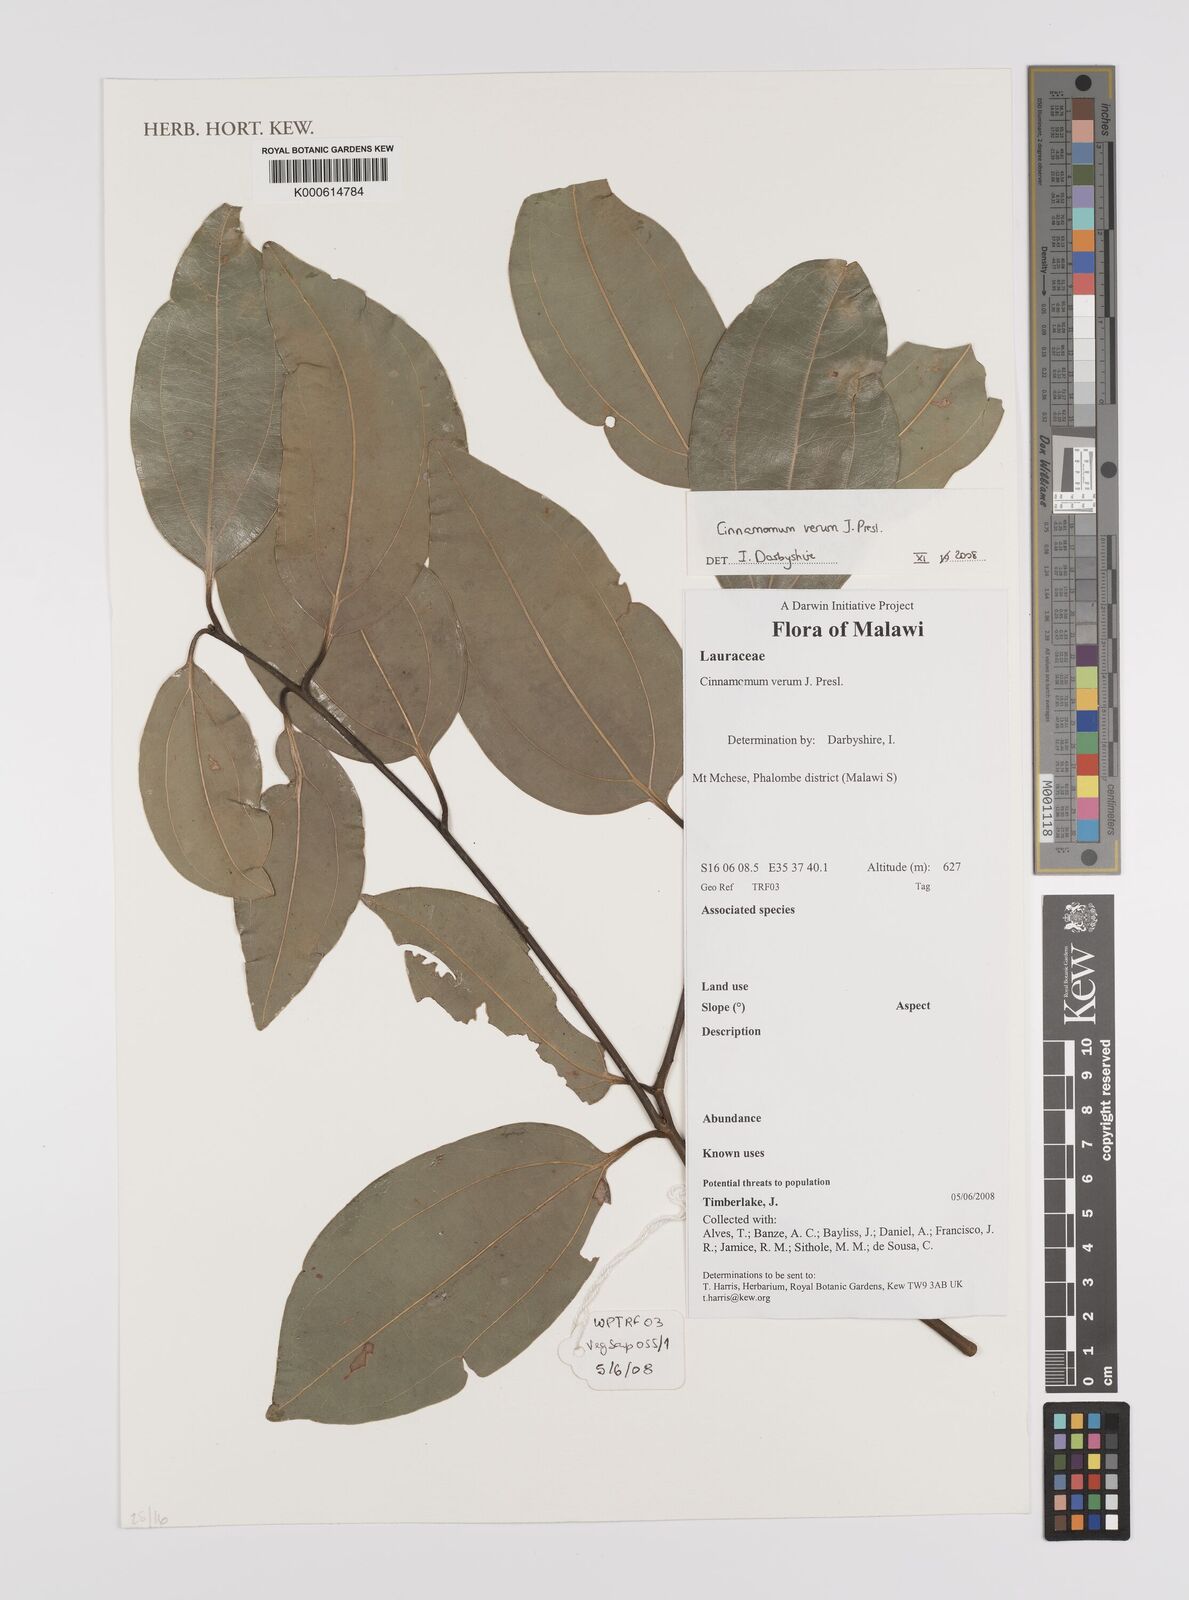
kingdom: Plantae
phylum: Tracheophyta
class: Magnoliopsida
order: Laurales
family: Lauraceae
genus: Cinnamomum
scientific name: Cinnamomum verum
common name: Cinnamon
